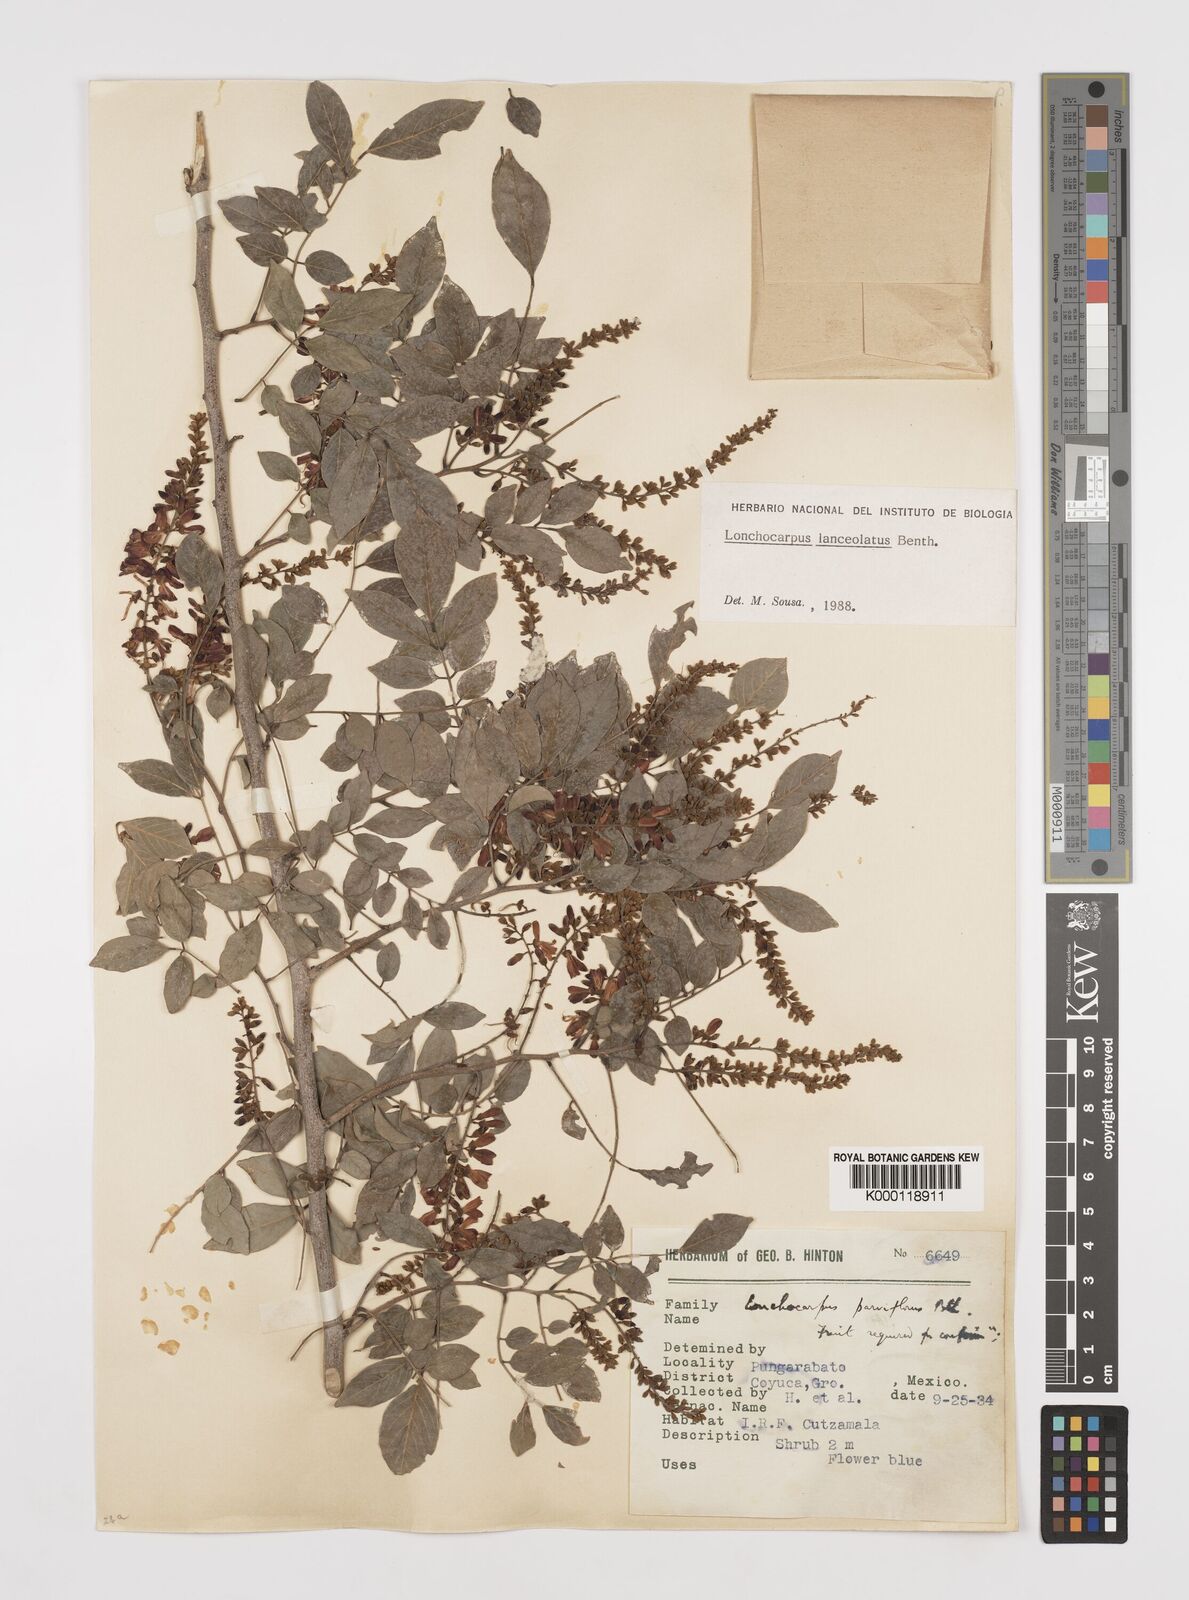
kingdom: Plantae
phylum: Tracheophyta
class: Magnoliopsida
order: Fabales
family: Fabaceae
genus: Lonchocarpus
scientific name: Lonchocarpus lanceolatus
